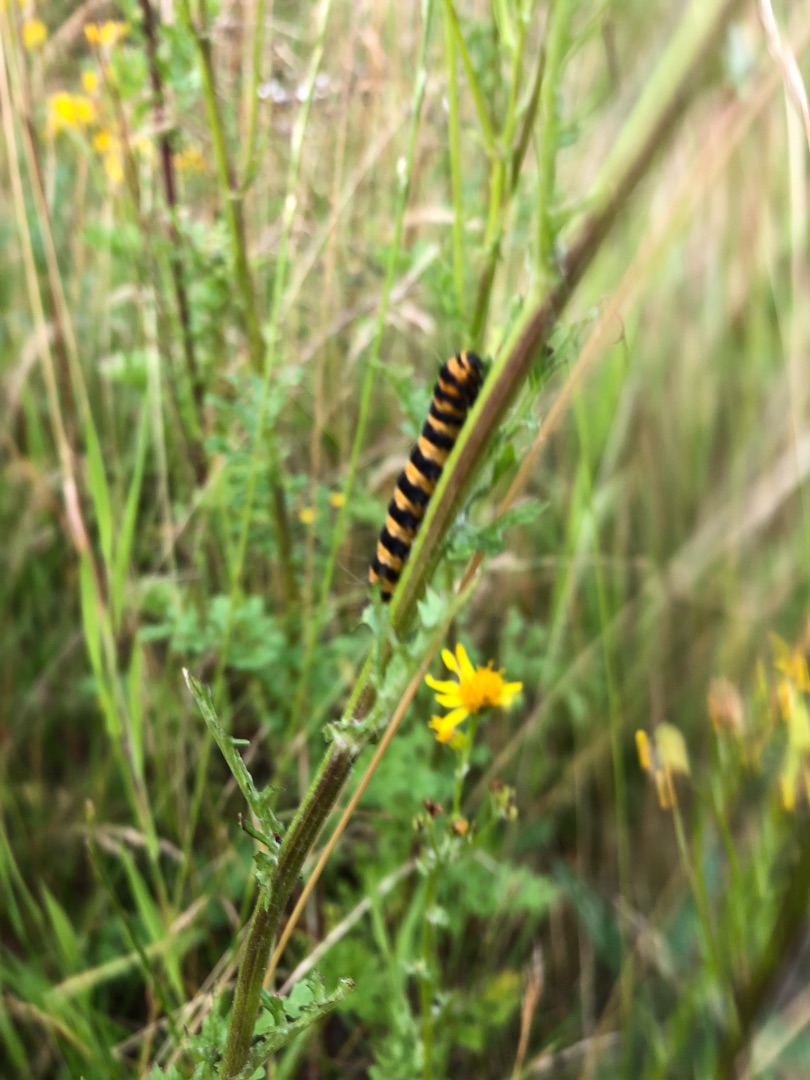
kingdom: Animalia
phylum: Arthropoda
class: Insecta
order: Lepidoptera
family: Erebidae
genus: Tyria
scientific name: Tyria jacobaeae
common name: Blodplet
